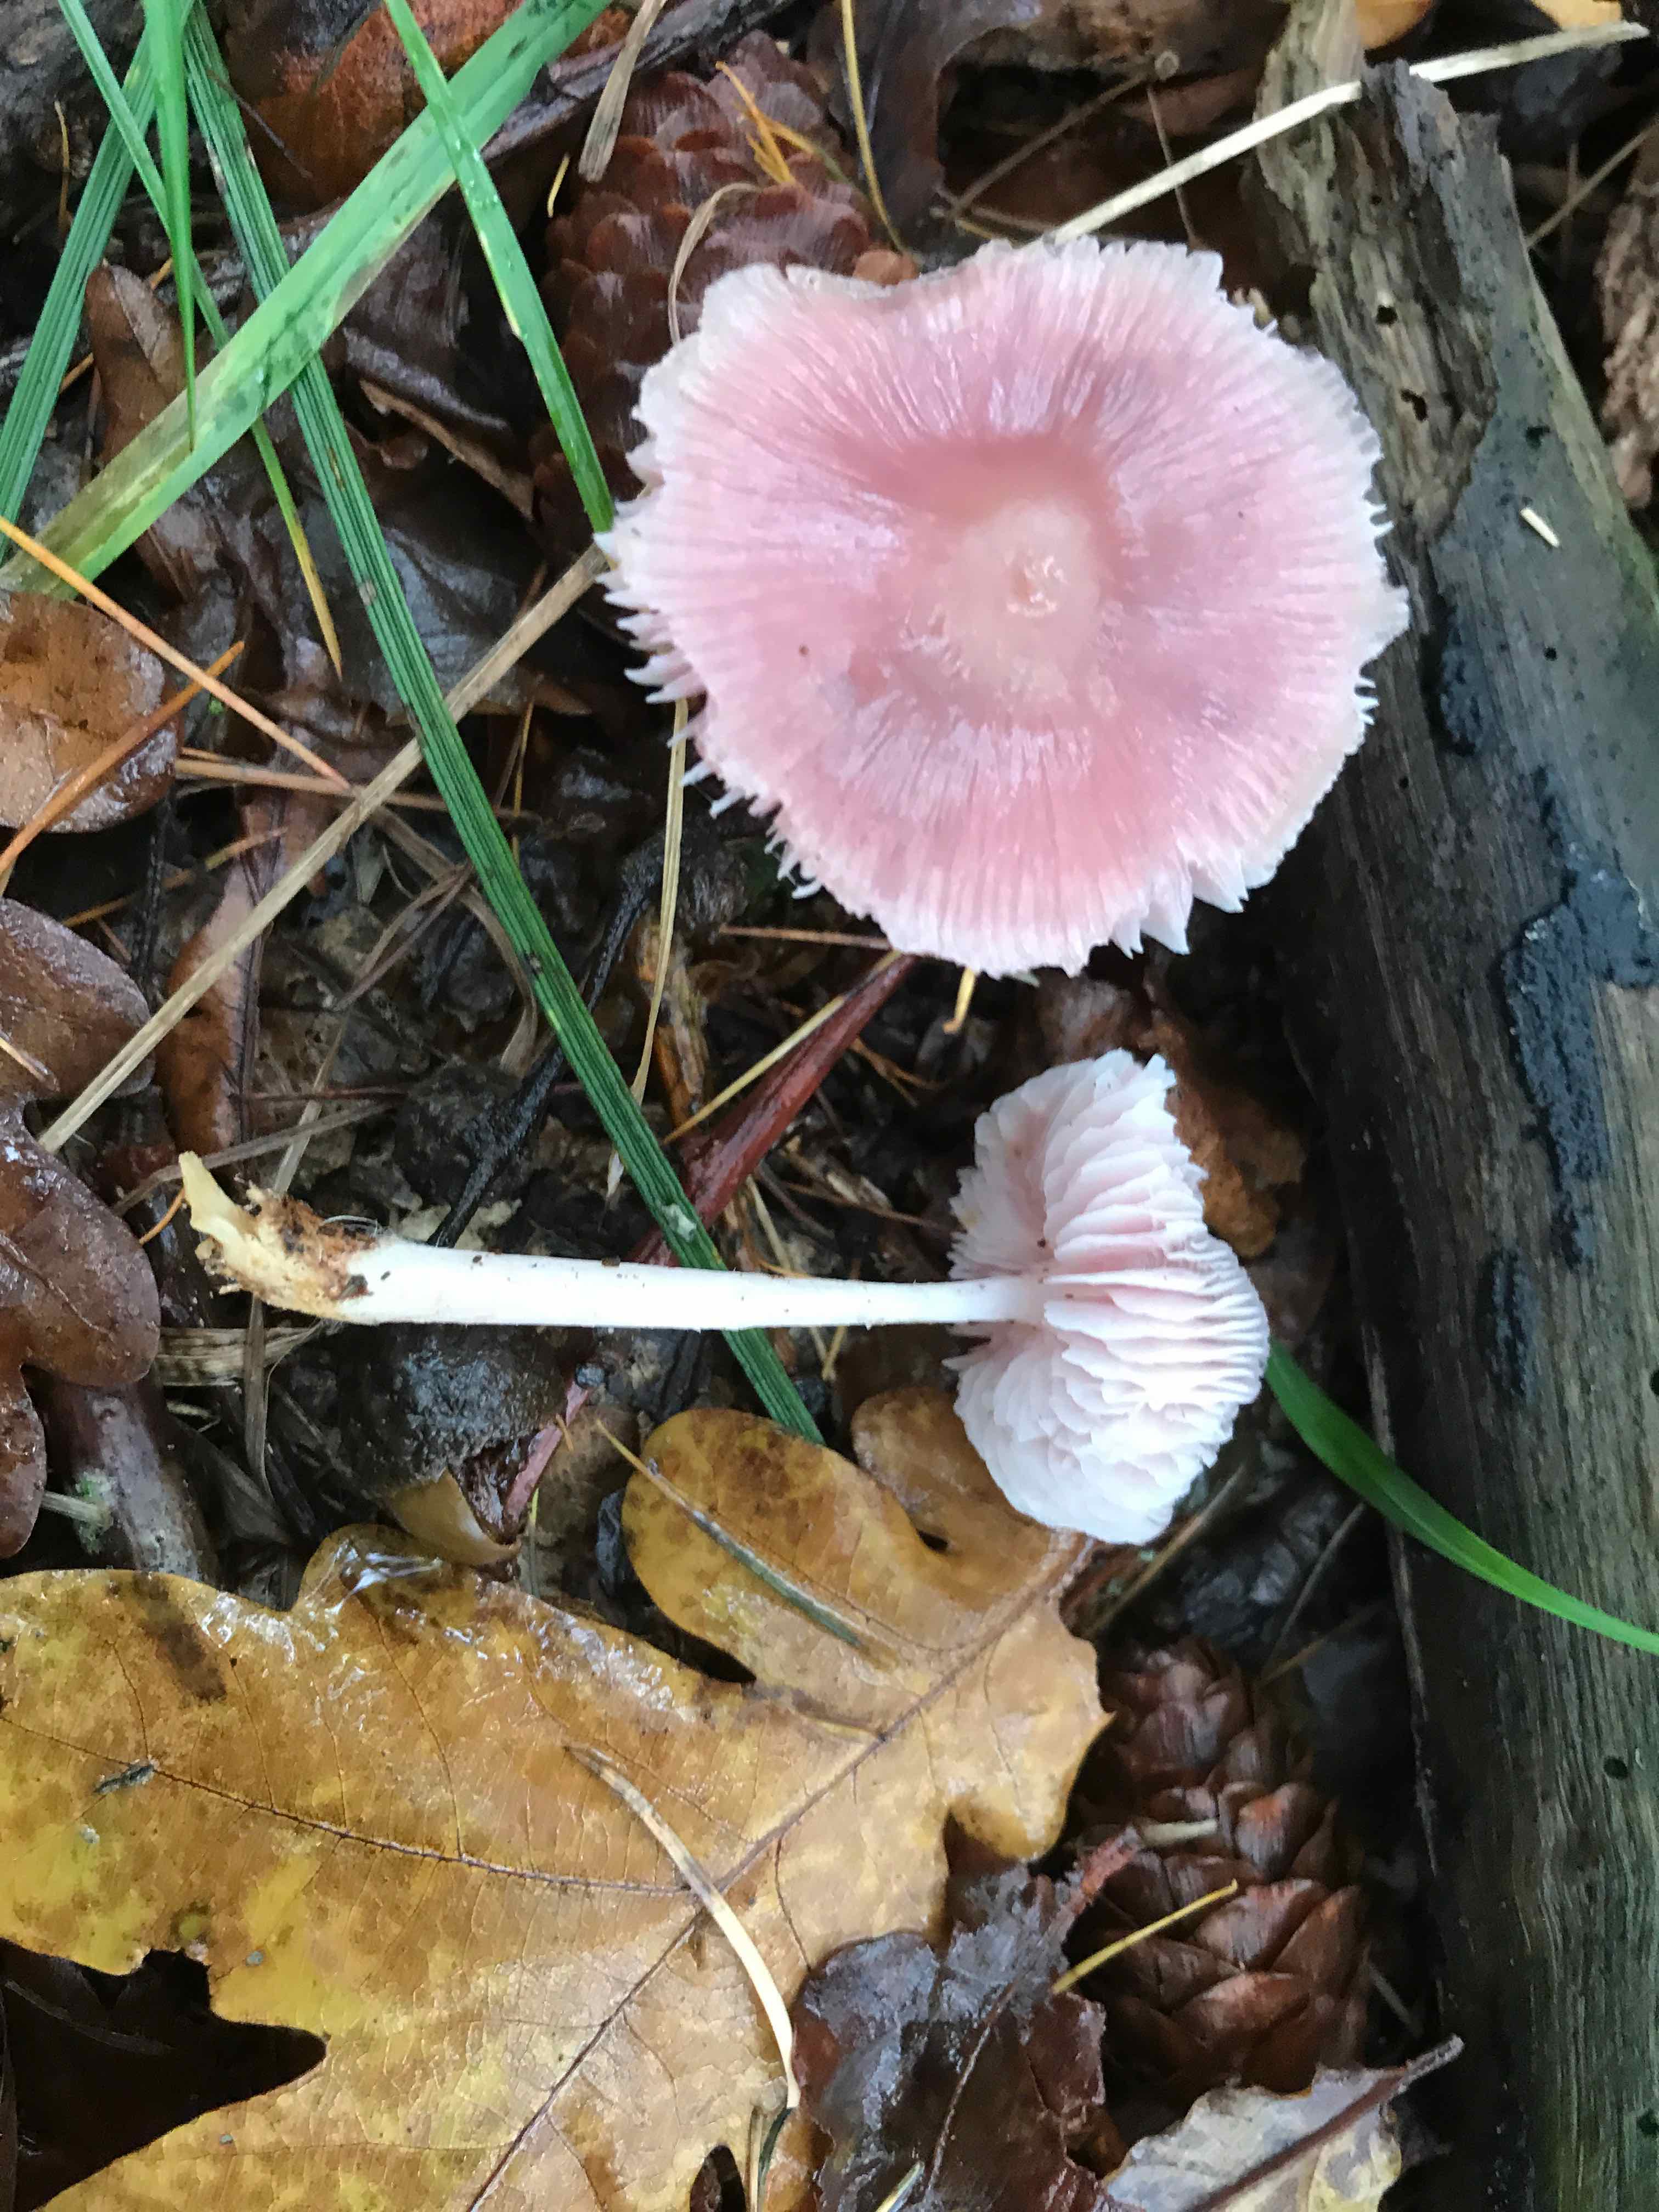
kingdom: Fungi
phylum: Basidiomycota
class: Agaricomycetes
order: Agaricales
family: Mycenaceae
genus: Mycena
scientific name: Mycena rosea
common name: rosa huesvamp
